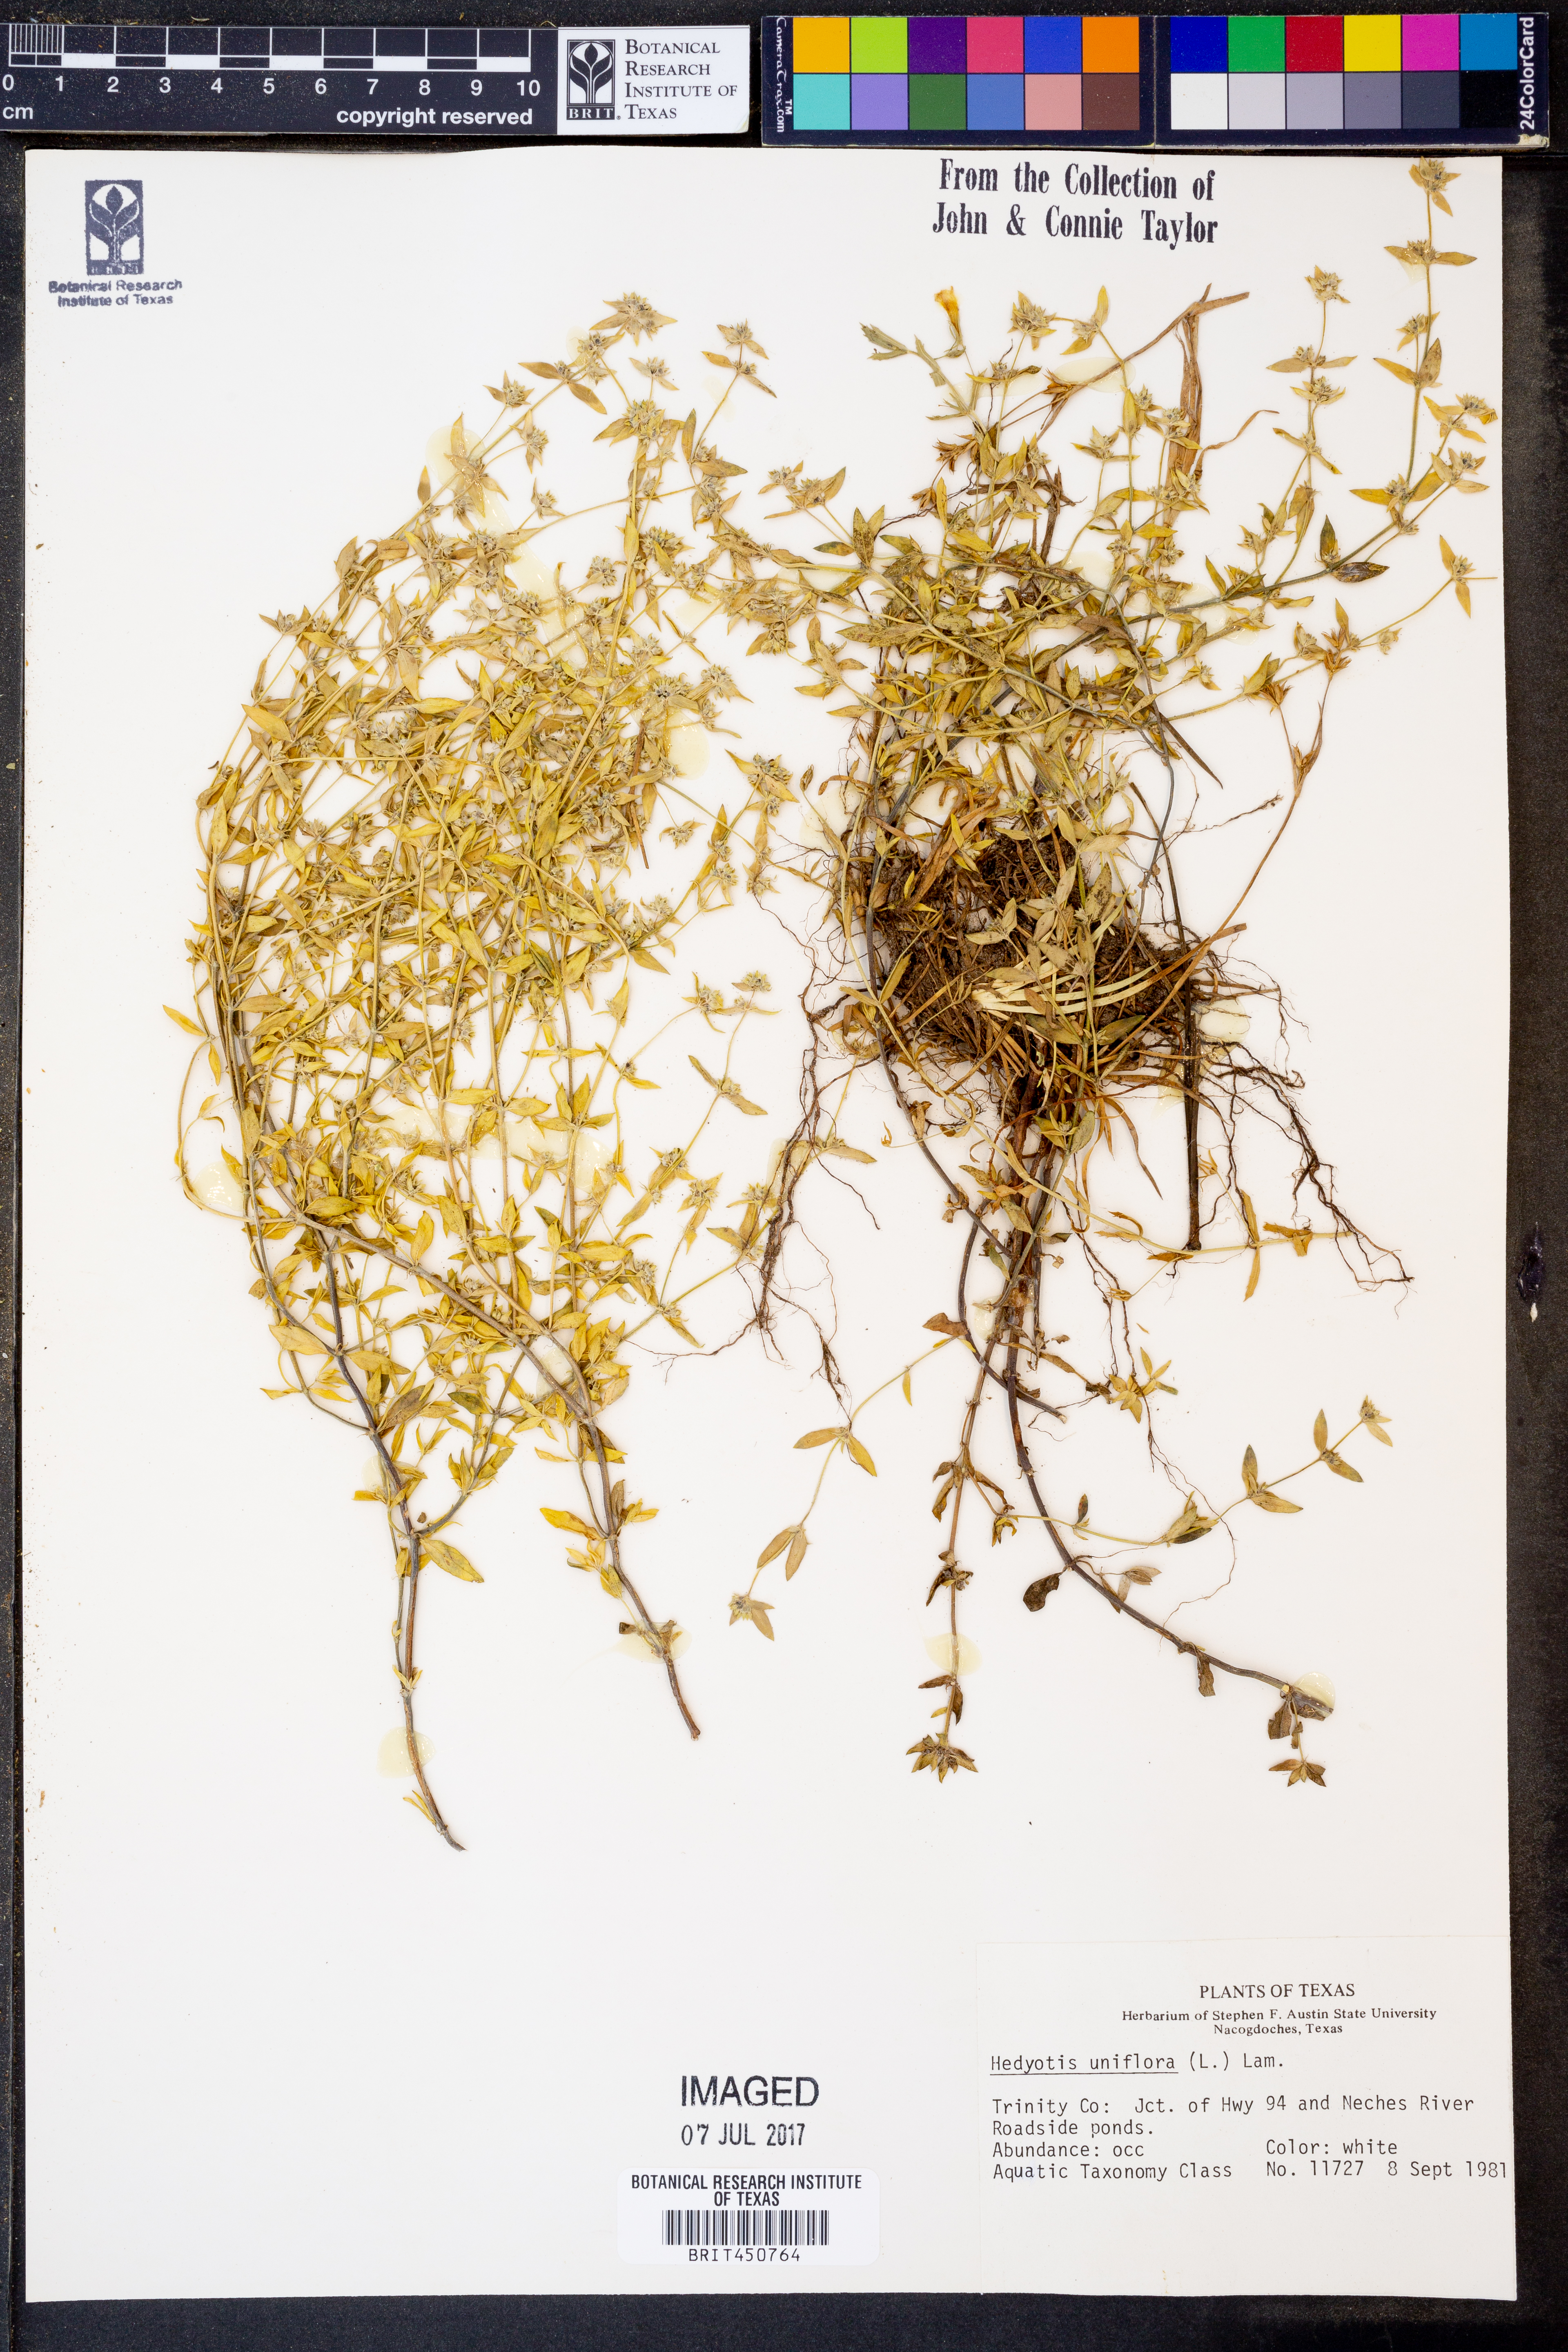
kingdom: Plantae
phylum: Tracheophyta
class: Magnoliopsida
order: Gentianales
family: Rubiaceae
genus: Edrastima
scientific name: Edrastima uniflora
